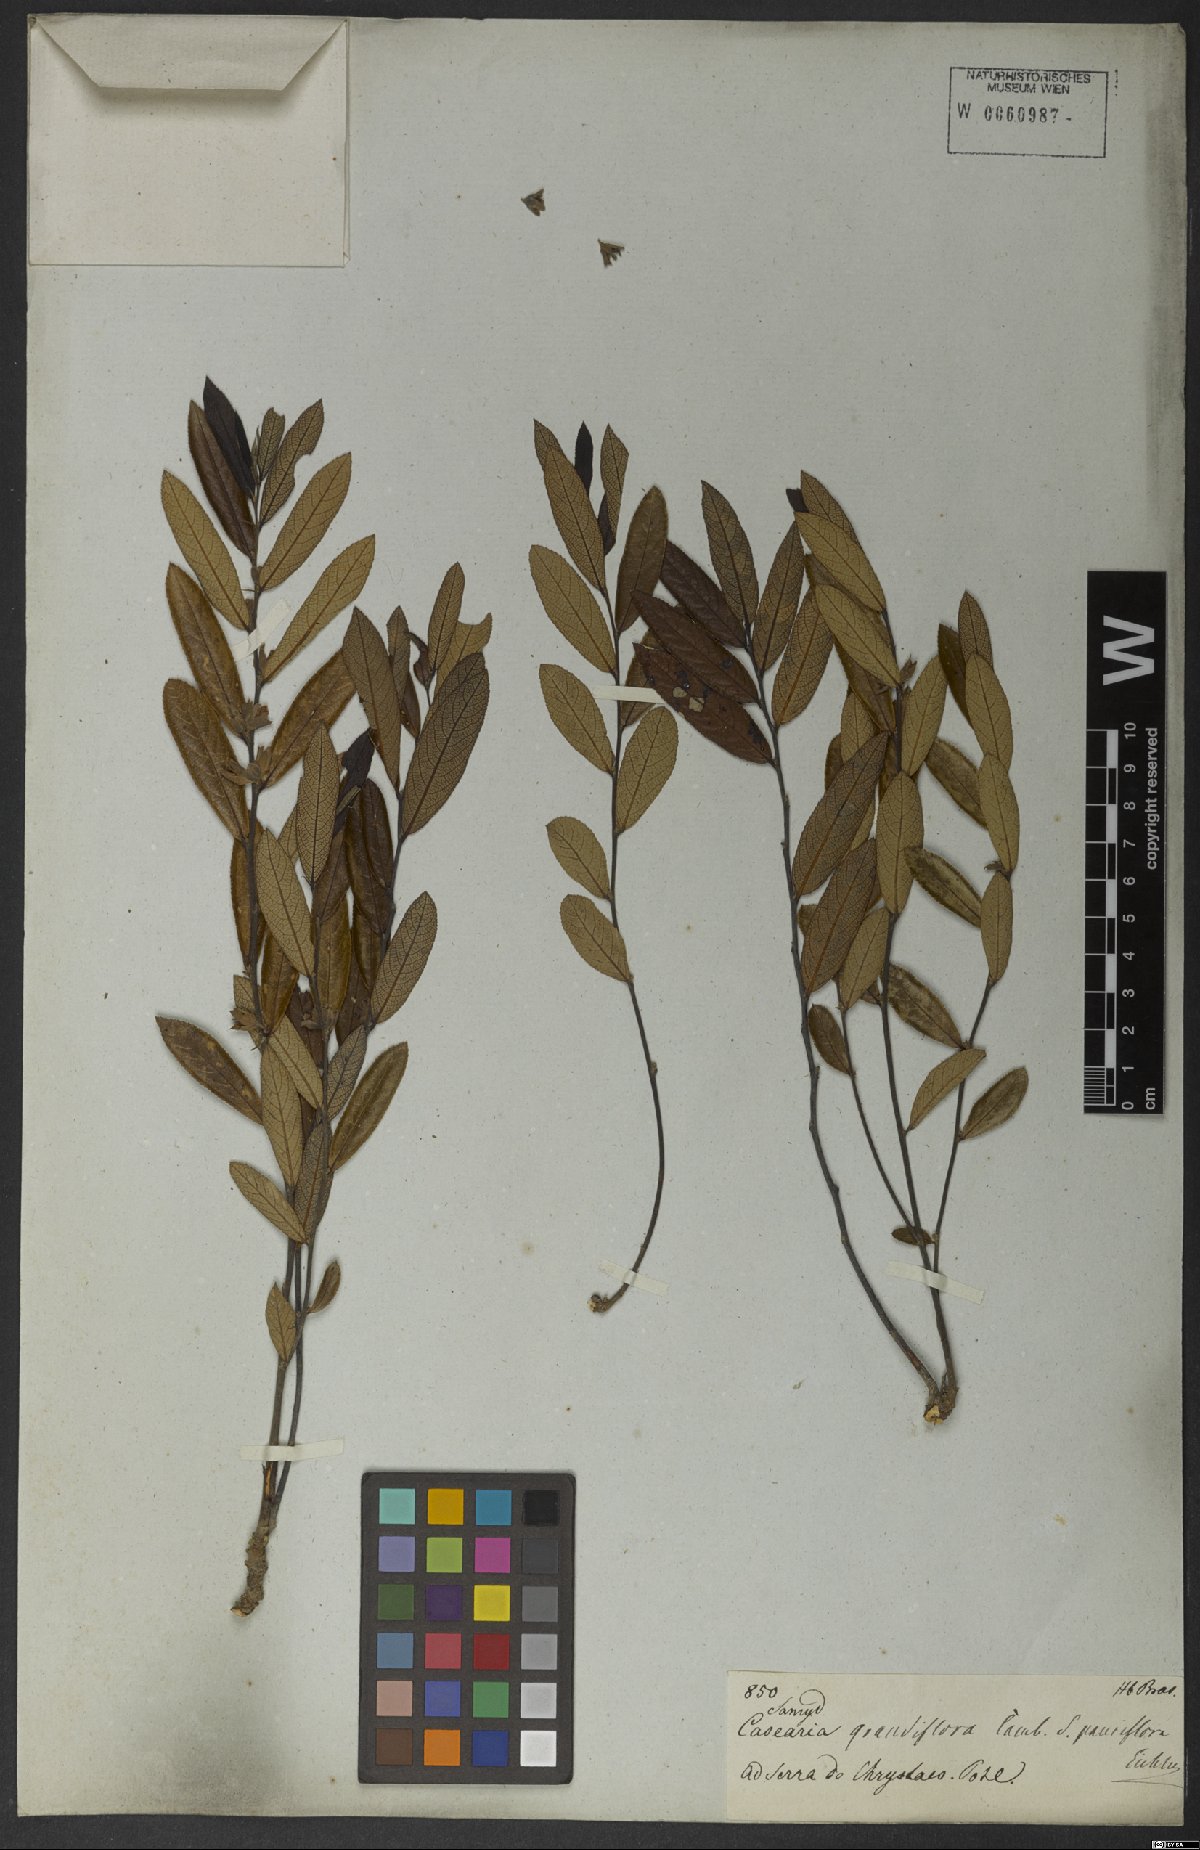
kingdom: Plantae
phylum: Tracheophyta
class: Magnoliopsida
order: Malpighiales
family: Salicaceae
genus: Casearia
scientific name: Casearia grandiflora
